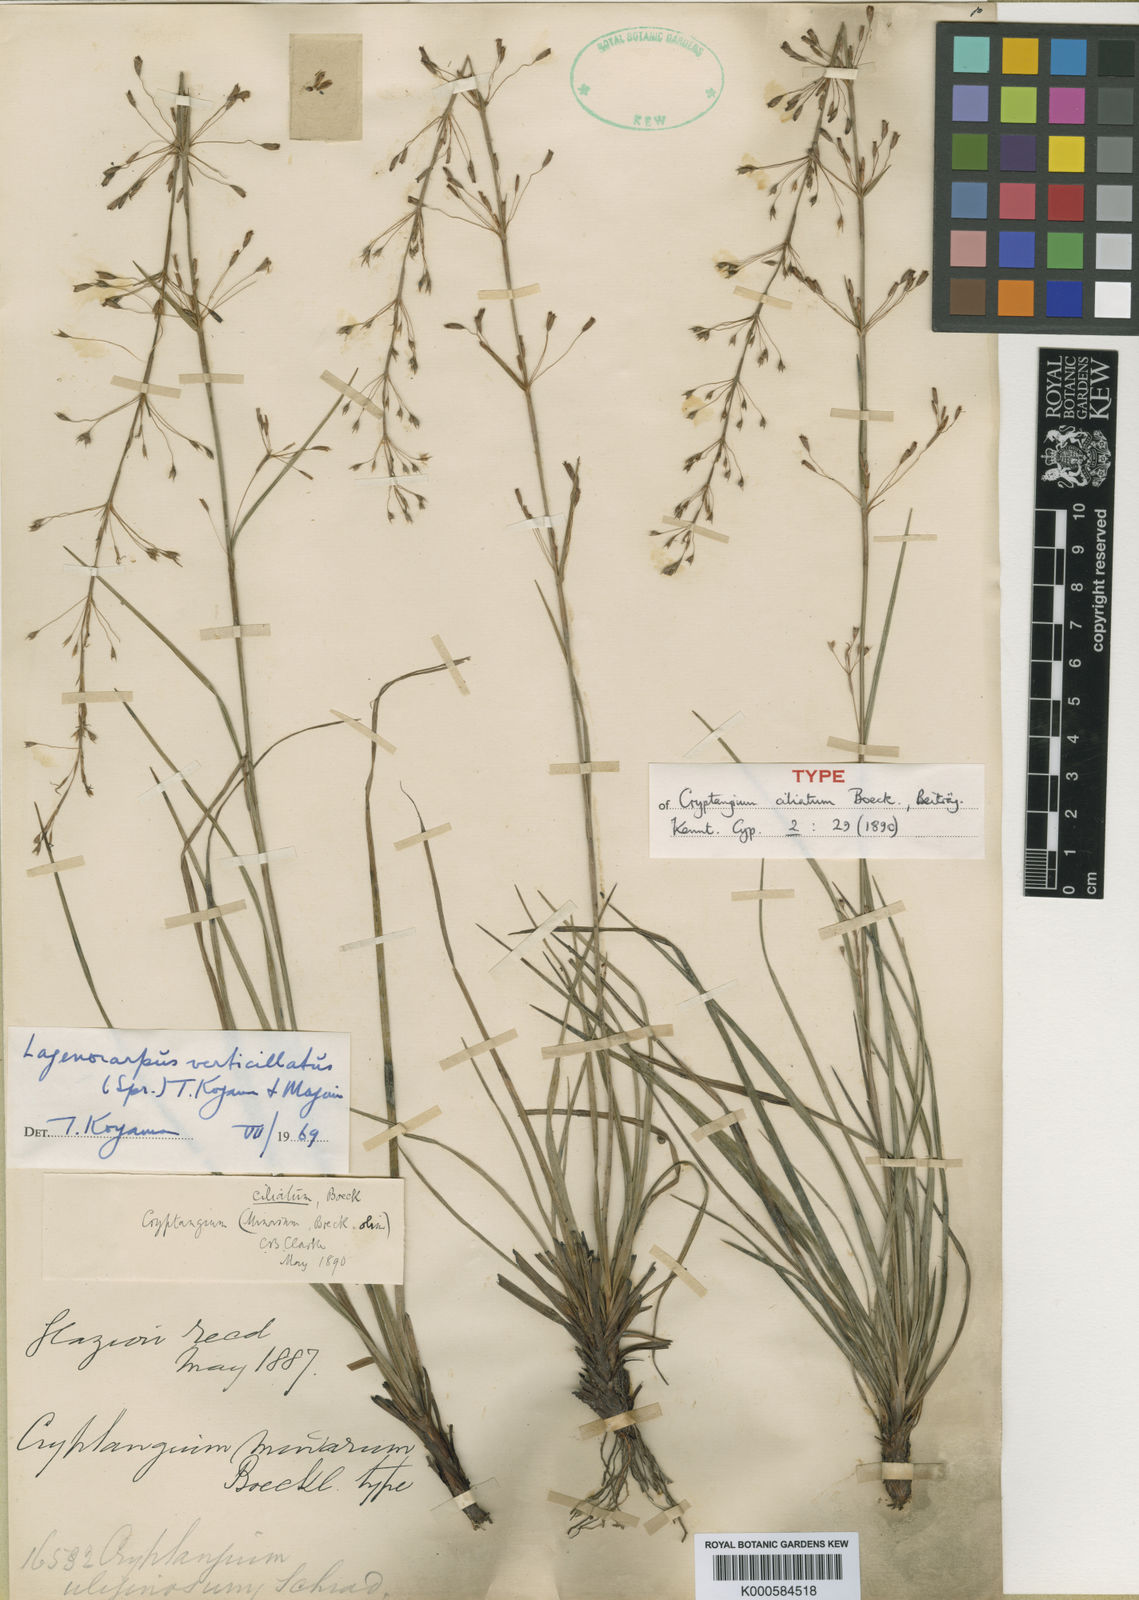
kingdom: Plantae
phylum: Tracheophyta
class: Liliopsida
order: Poales
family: Cyperaceae
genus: Cryptangium
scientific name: Cryptangium verticillatum
